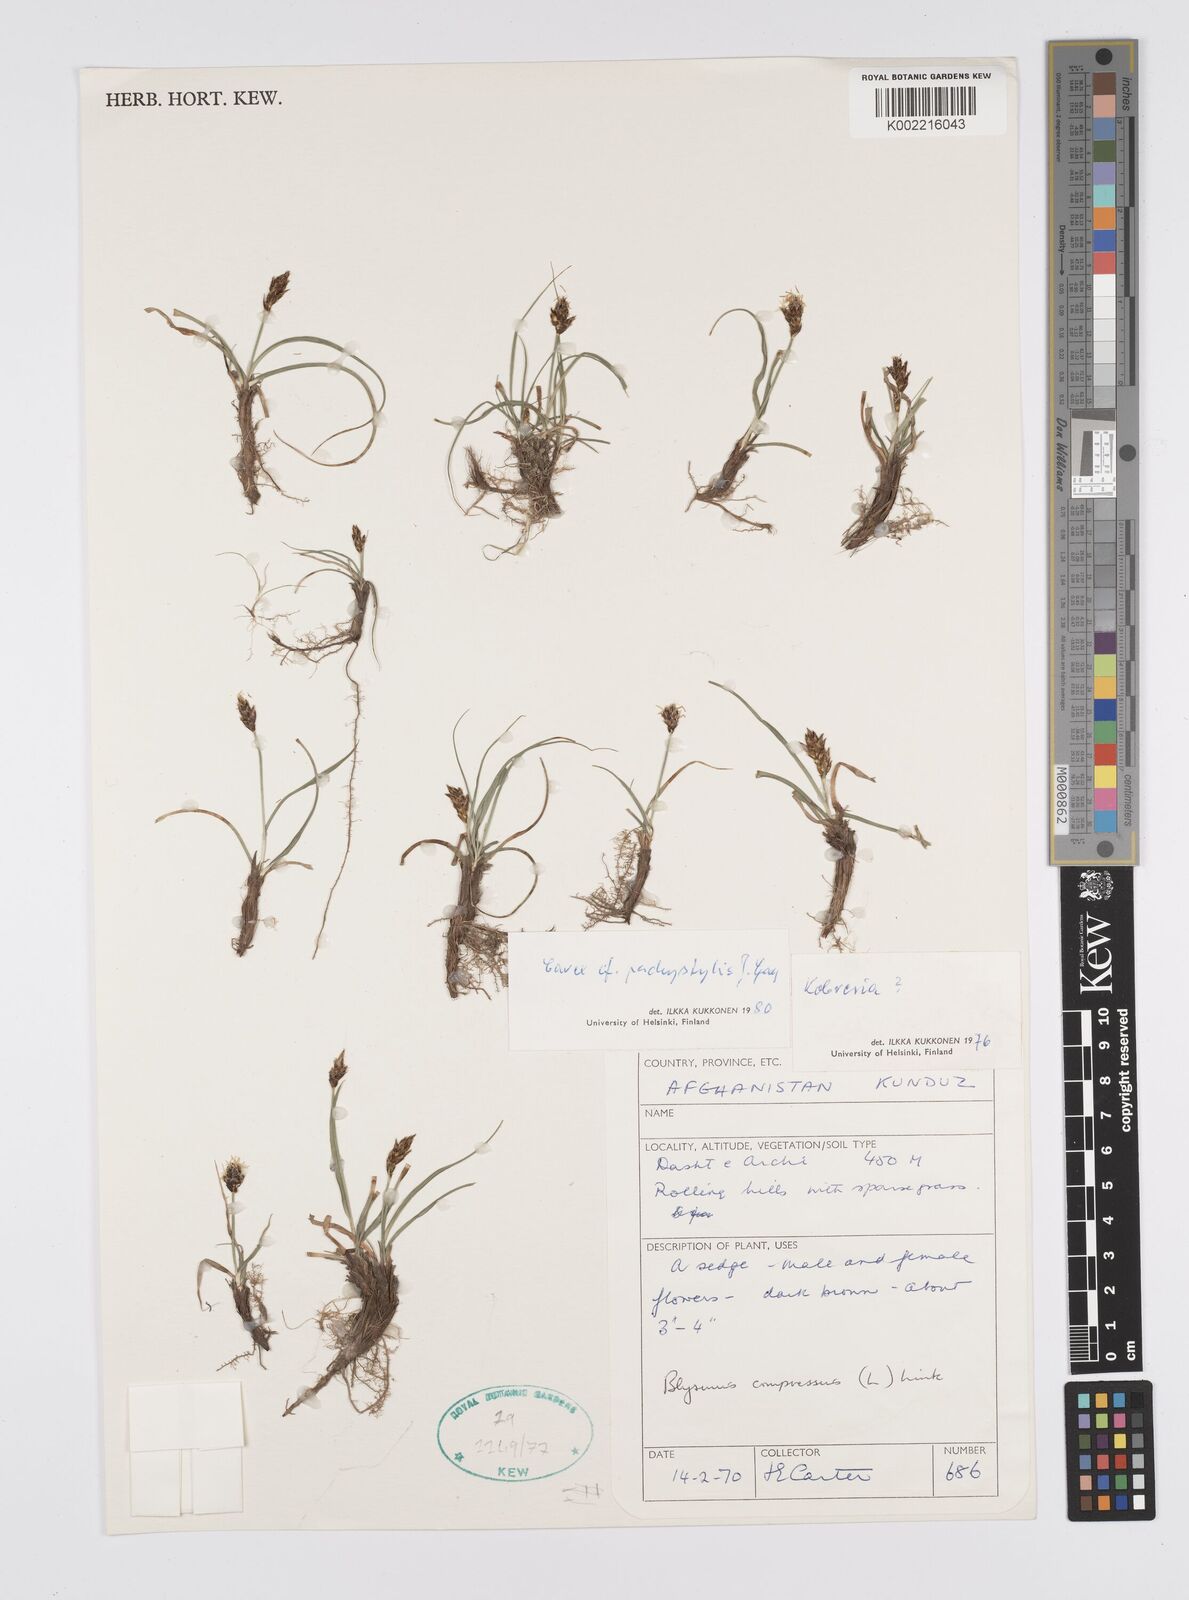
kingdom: Plantae
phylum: Tracheophyta
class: Liliopsida
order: Poales
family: Cyperaceae
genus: Carex
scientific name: Carex pachystylis
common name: Thick-stem sedge
